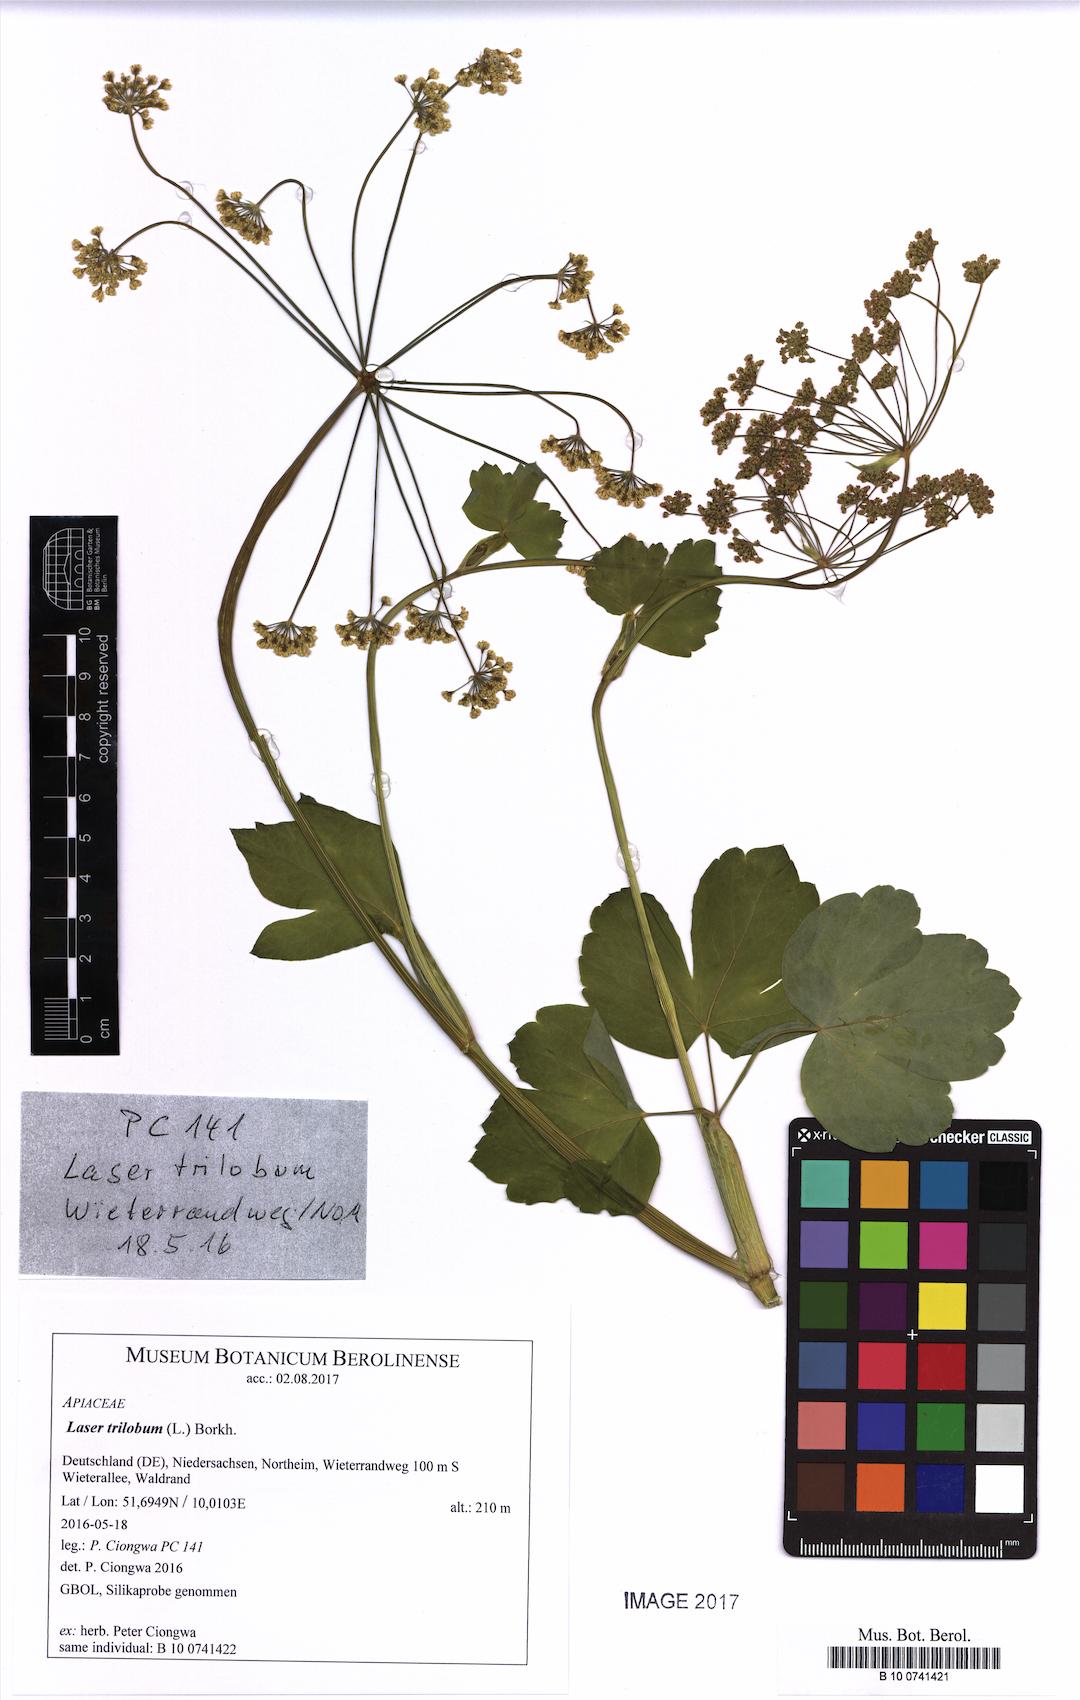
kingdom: Plantae
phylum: Tracheophyta
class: Magnoliopsida
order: Apiales
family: Apiaceae
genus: Laser
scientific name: Laser trilobum
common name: Laser
